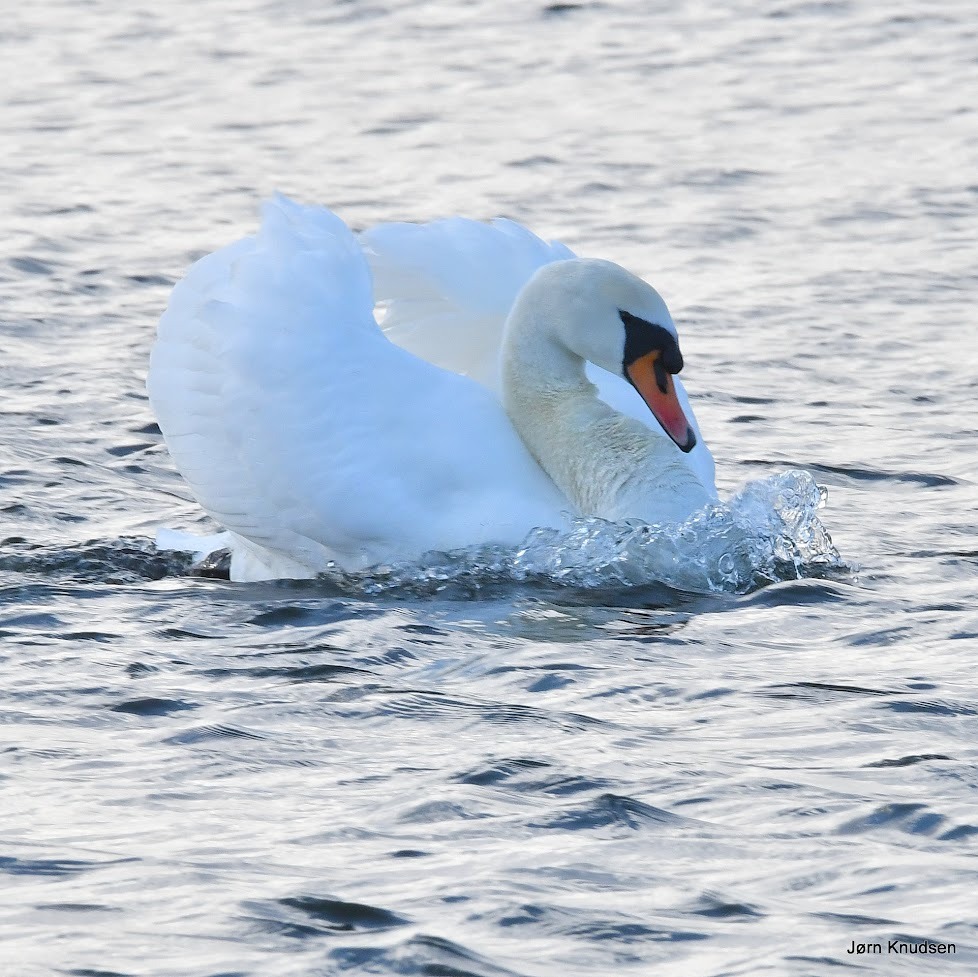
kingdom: Animalia
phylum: Chordata
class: Aves
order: Anseriformes
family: Anatidae
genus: Cygnus
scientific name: Cygnus olor
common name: Knopsvane
